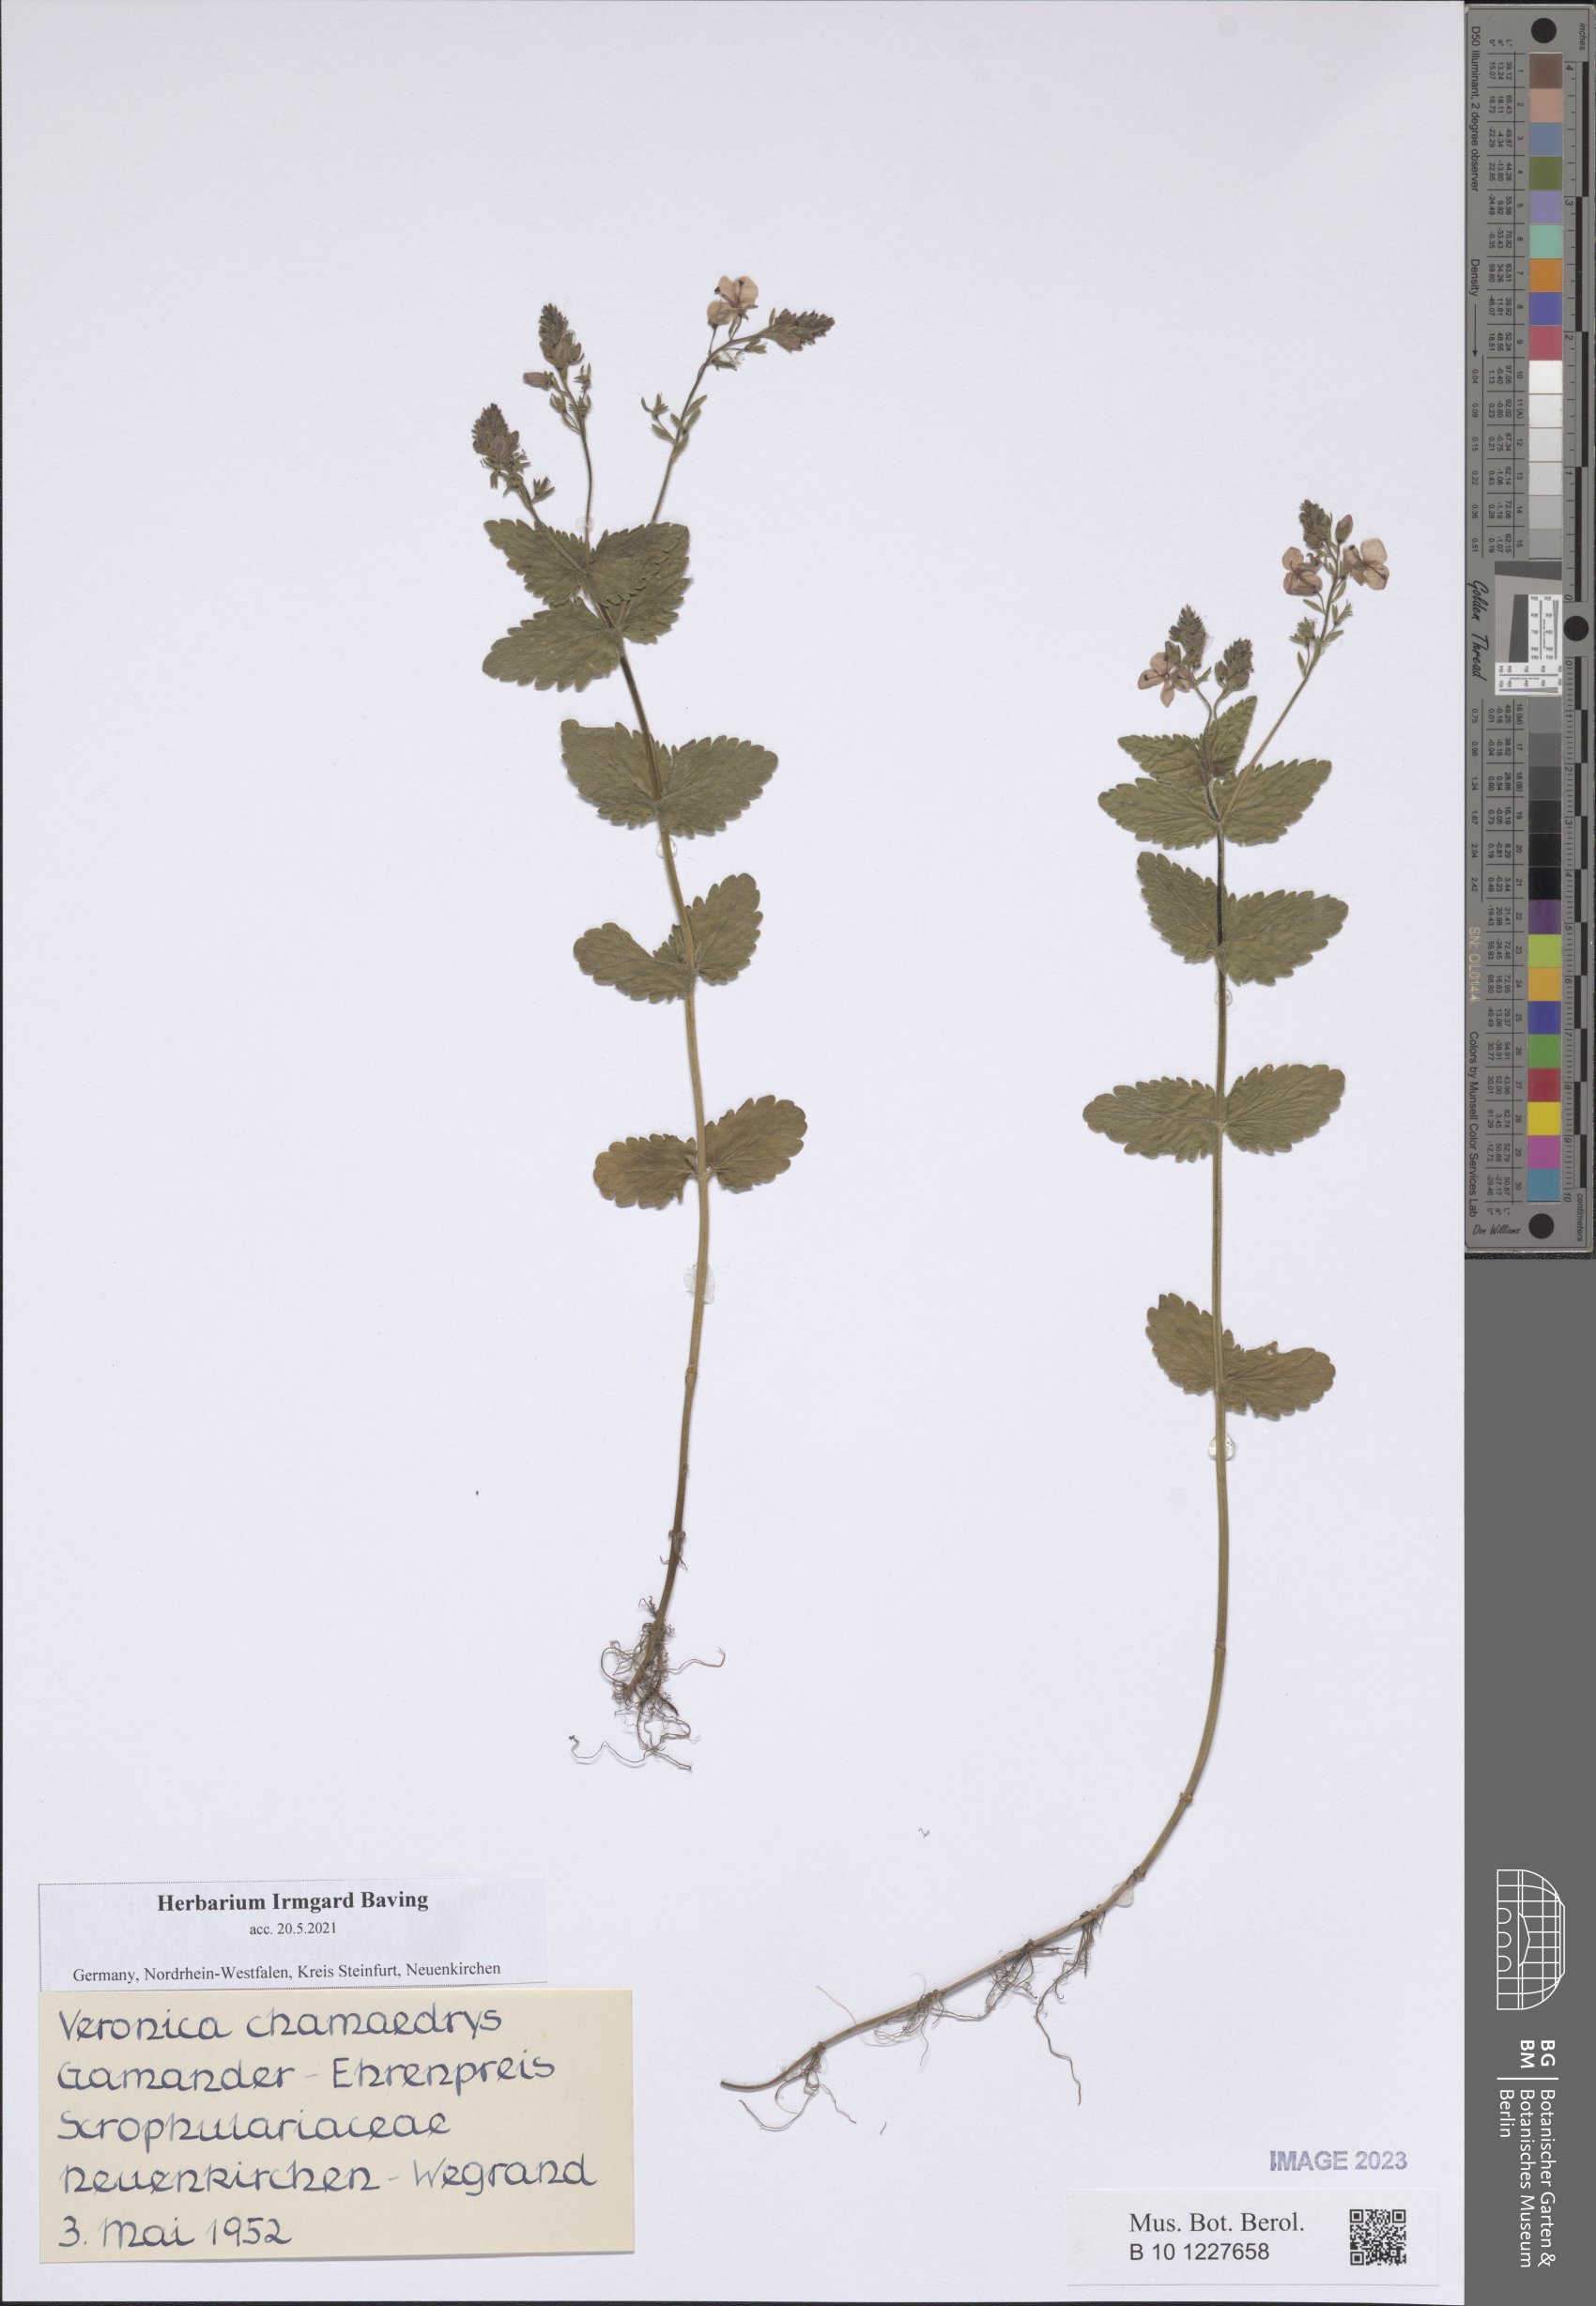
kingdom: Plantae
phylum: Tracheophyta
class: Magnoliopsida
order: Lamiales
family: Plantaginaceae
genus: Veronica
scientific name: Veronica chamaedrys
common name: Germander speedwell
